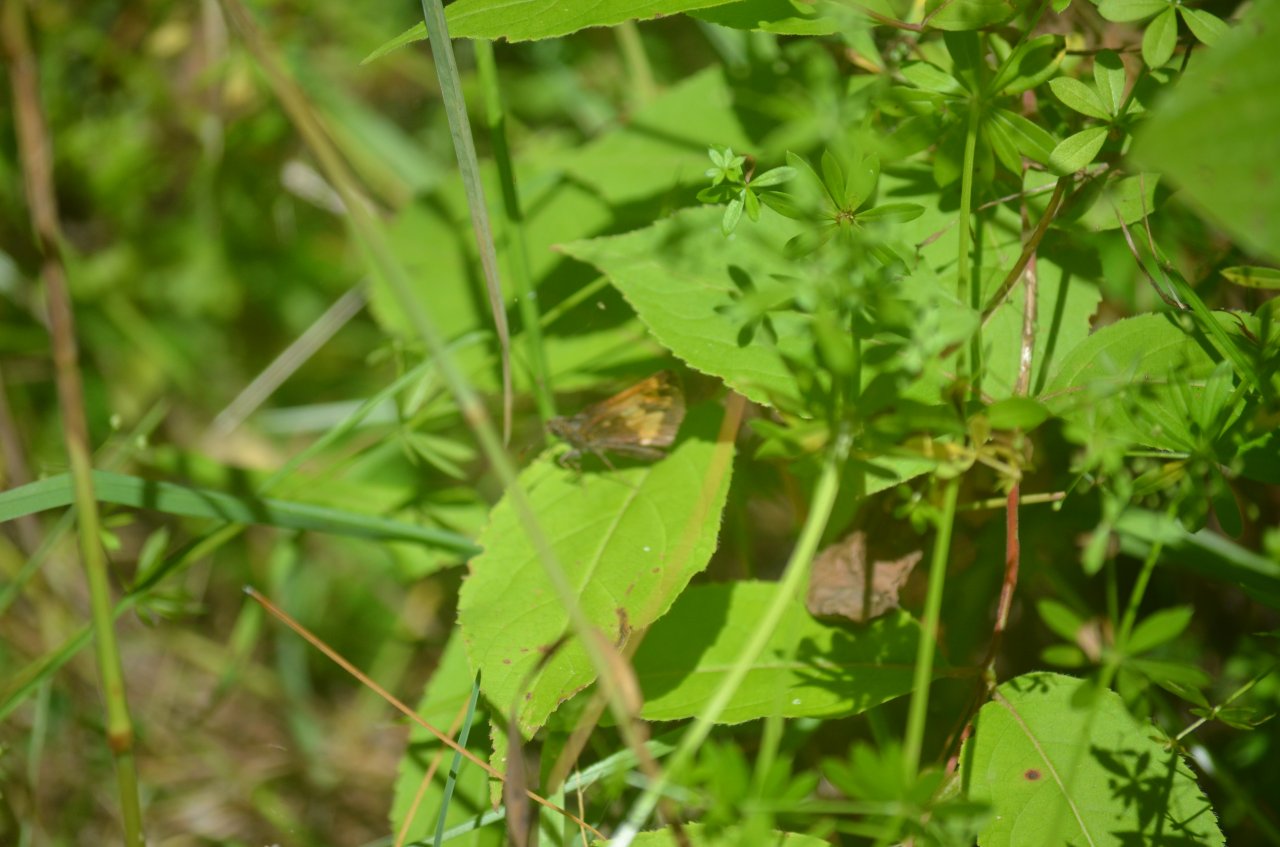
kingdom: Animalia
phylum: Arthropoda
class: Insecta
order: Lepidoptera
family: Hesperiidae
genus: Lon
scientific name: Lon hobomok
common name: Hobomok Skipper
